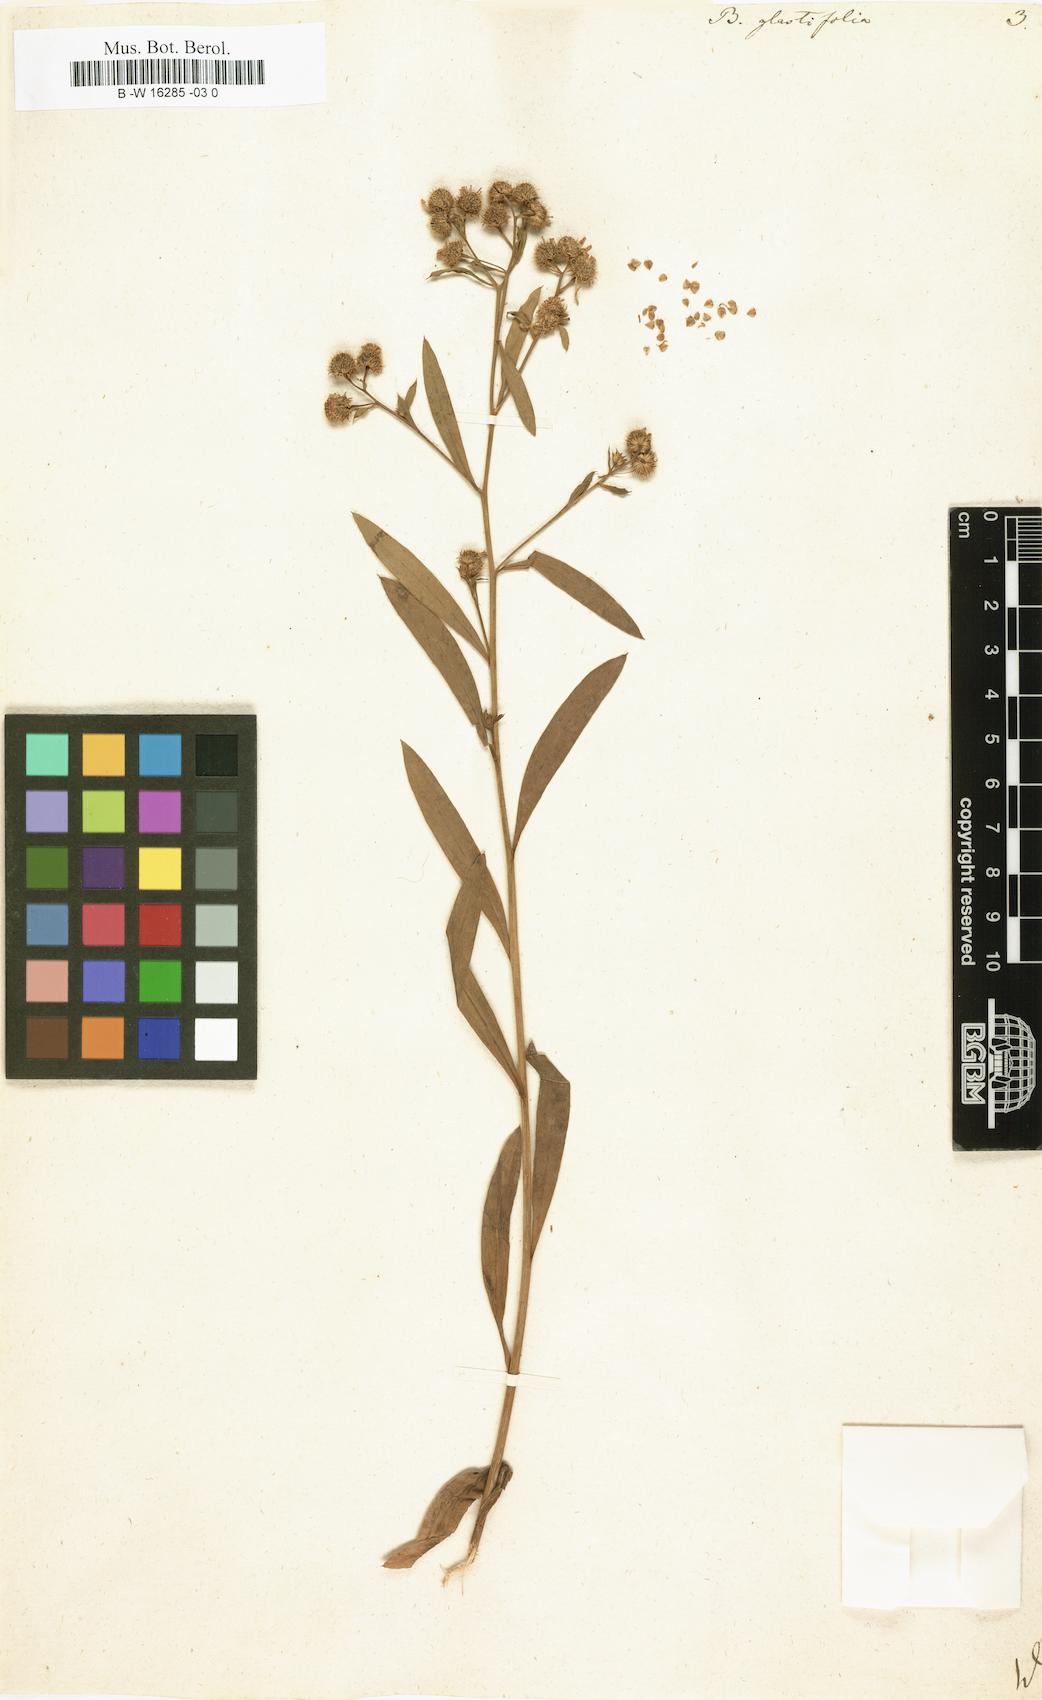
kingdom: Plantae
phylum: Tracheophyta
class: Magnoliopsida
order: Asterales
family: Asteraceae
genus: Boltonia
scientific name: Boltonia glastifolia
